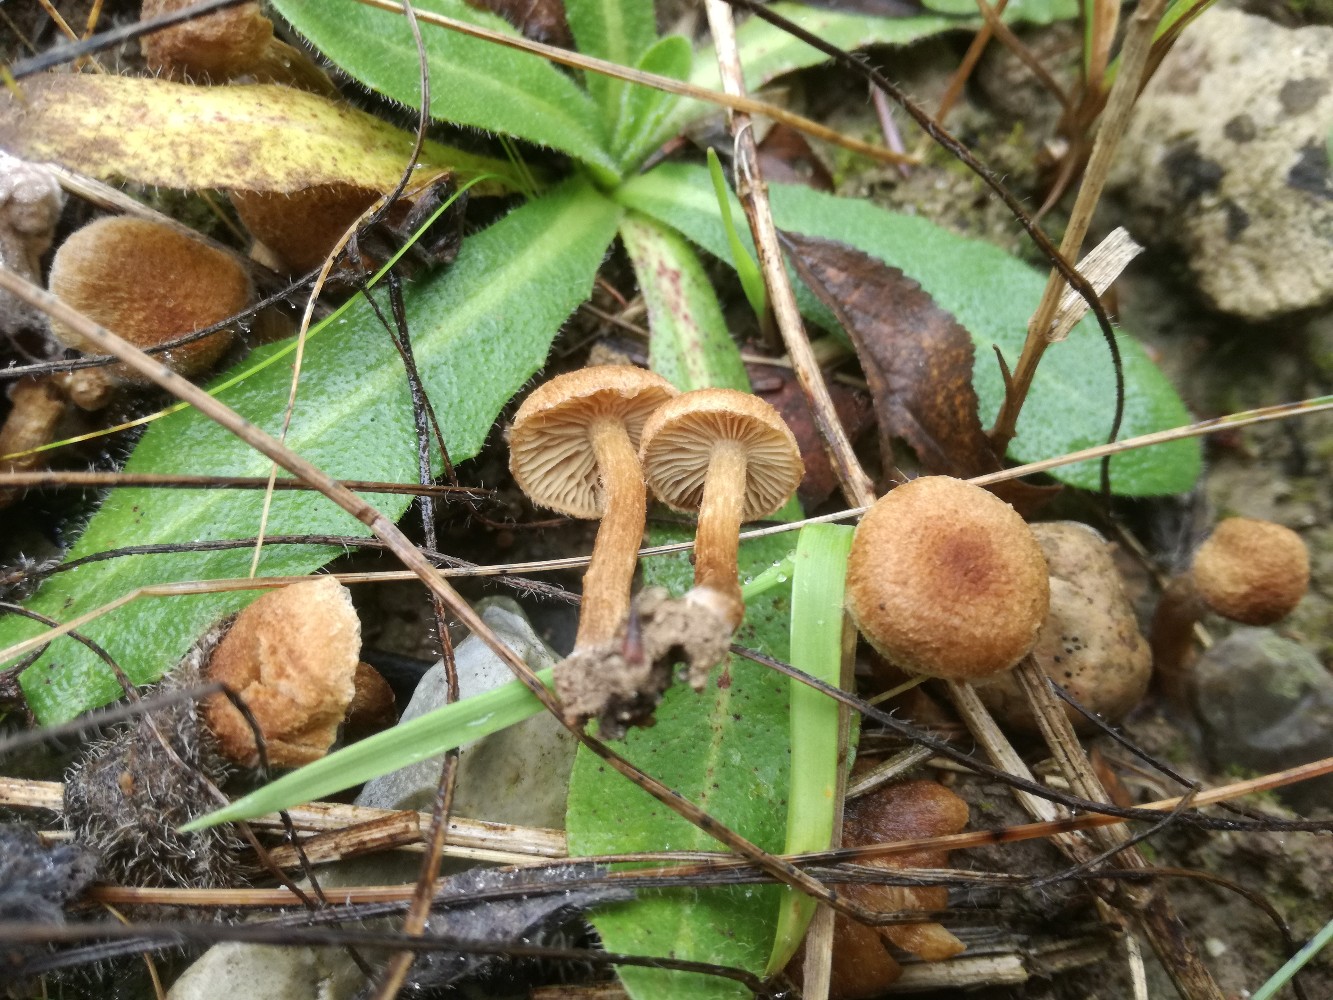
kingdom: Fungi
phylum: Basidiomycota
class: Agaricomycetes
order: Agaricales
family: Inocybaceae
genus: Inocybe
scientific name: Inocybe dulcamara
